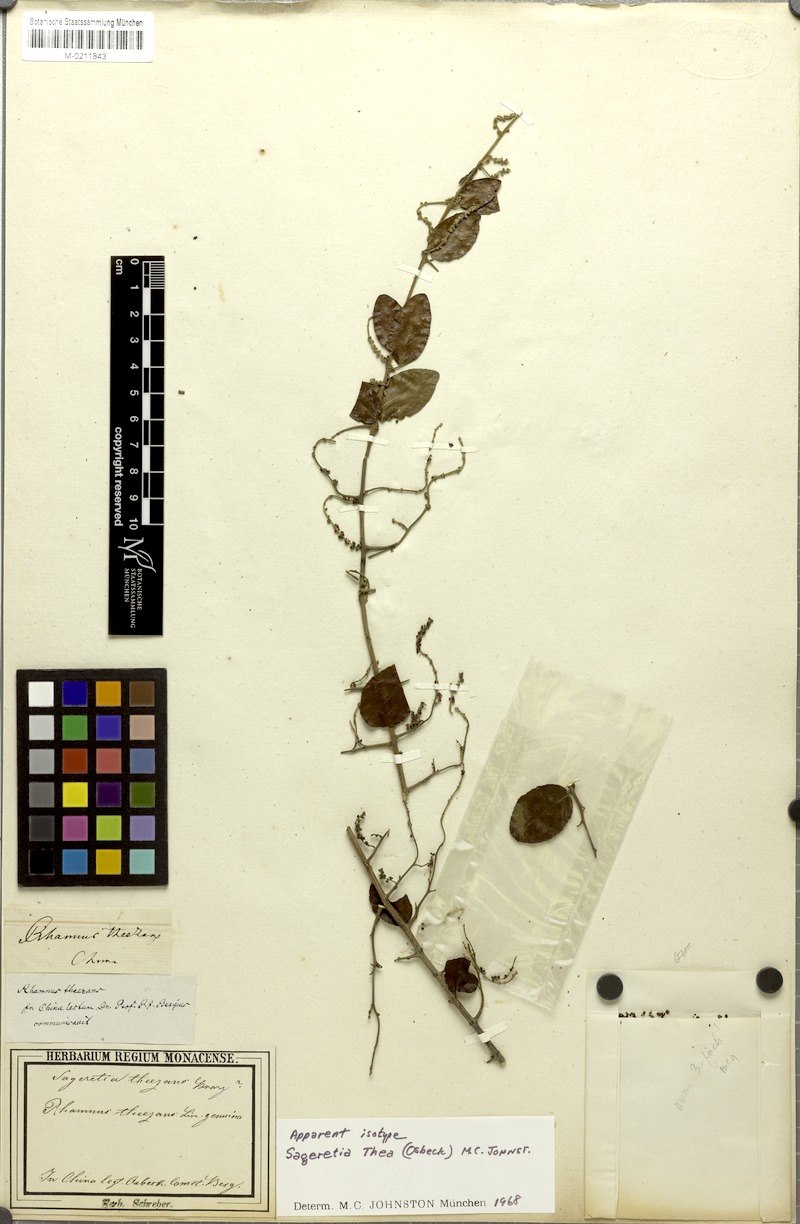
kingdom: Plantae
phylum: Tracheophyta
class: Magnoliopsida
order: Rosales
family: Rhamnaceae
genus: Sageretia
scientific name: Sageretia thea
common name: Pauper's-tea
